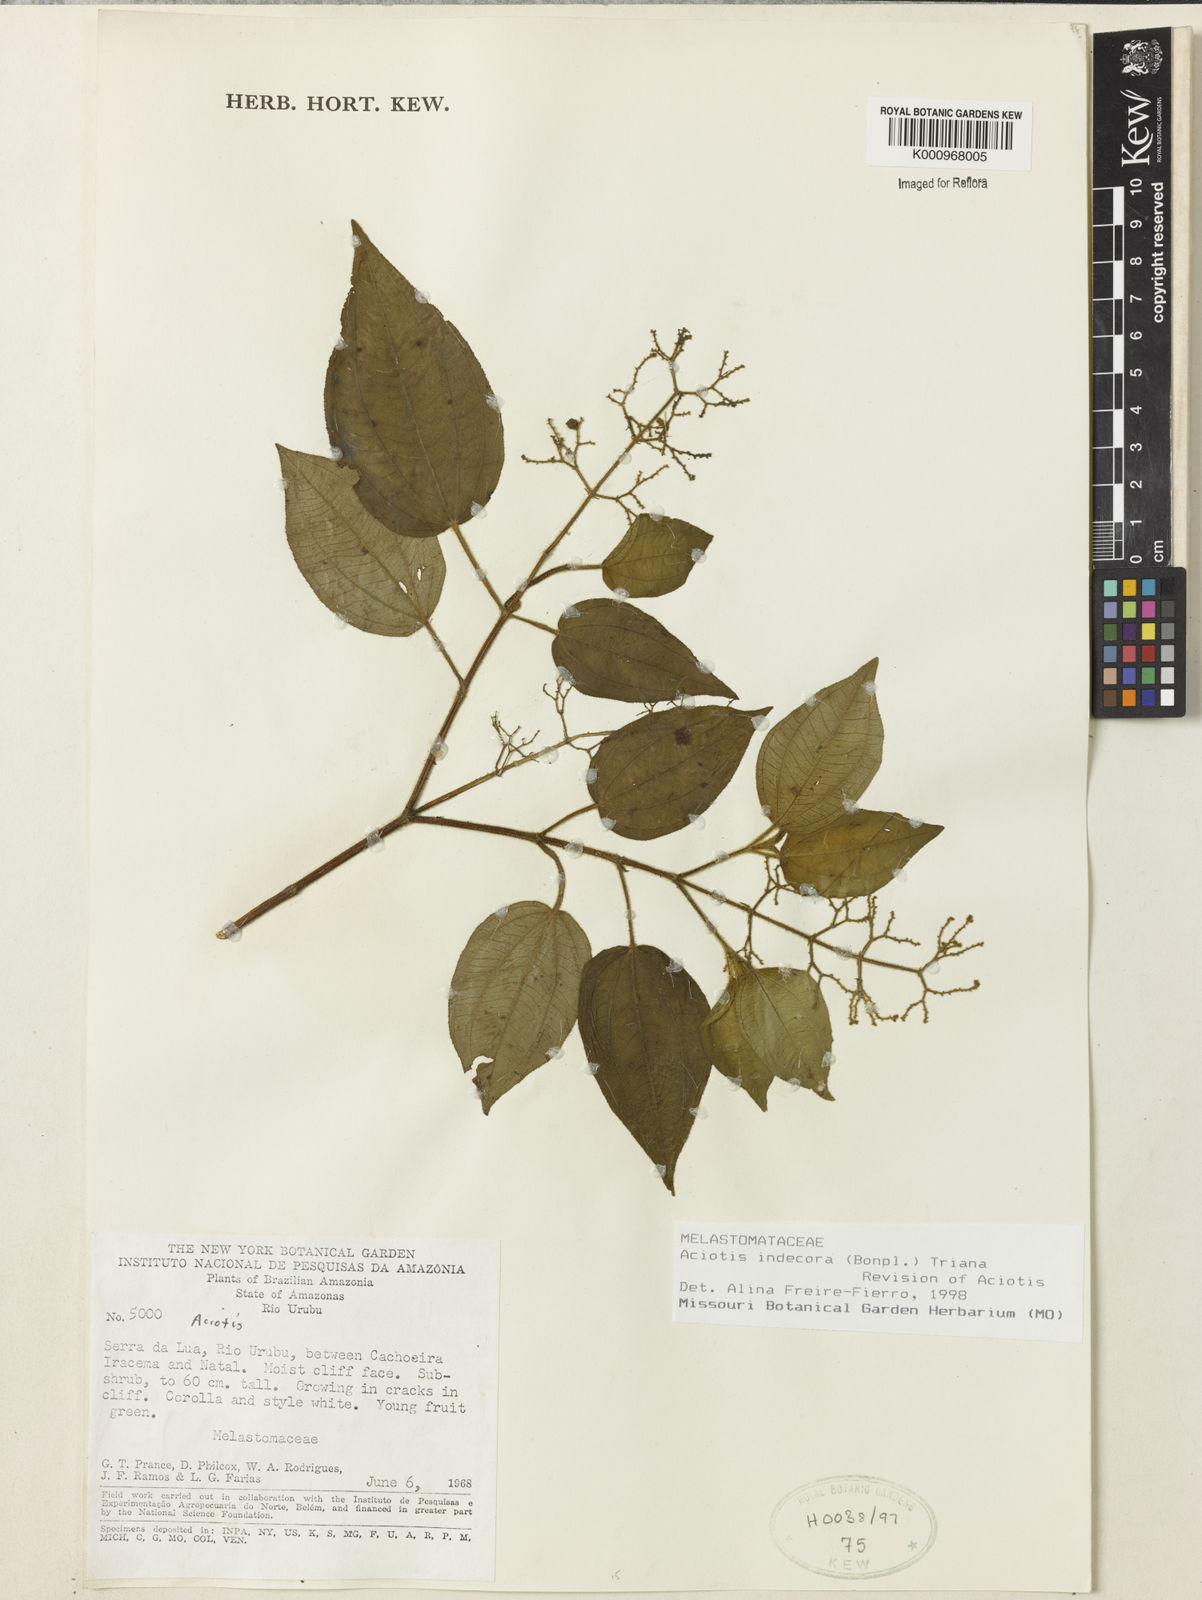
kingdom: Plantae
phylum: Tracheophyta
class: Magnoliopsida
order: Myrtales
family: Melastomataceae
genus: Aciotis
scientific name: Aciotis indecora
